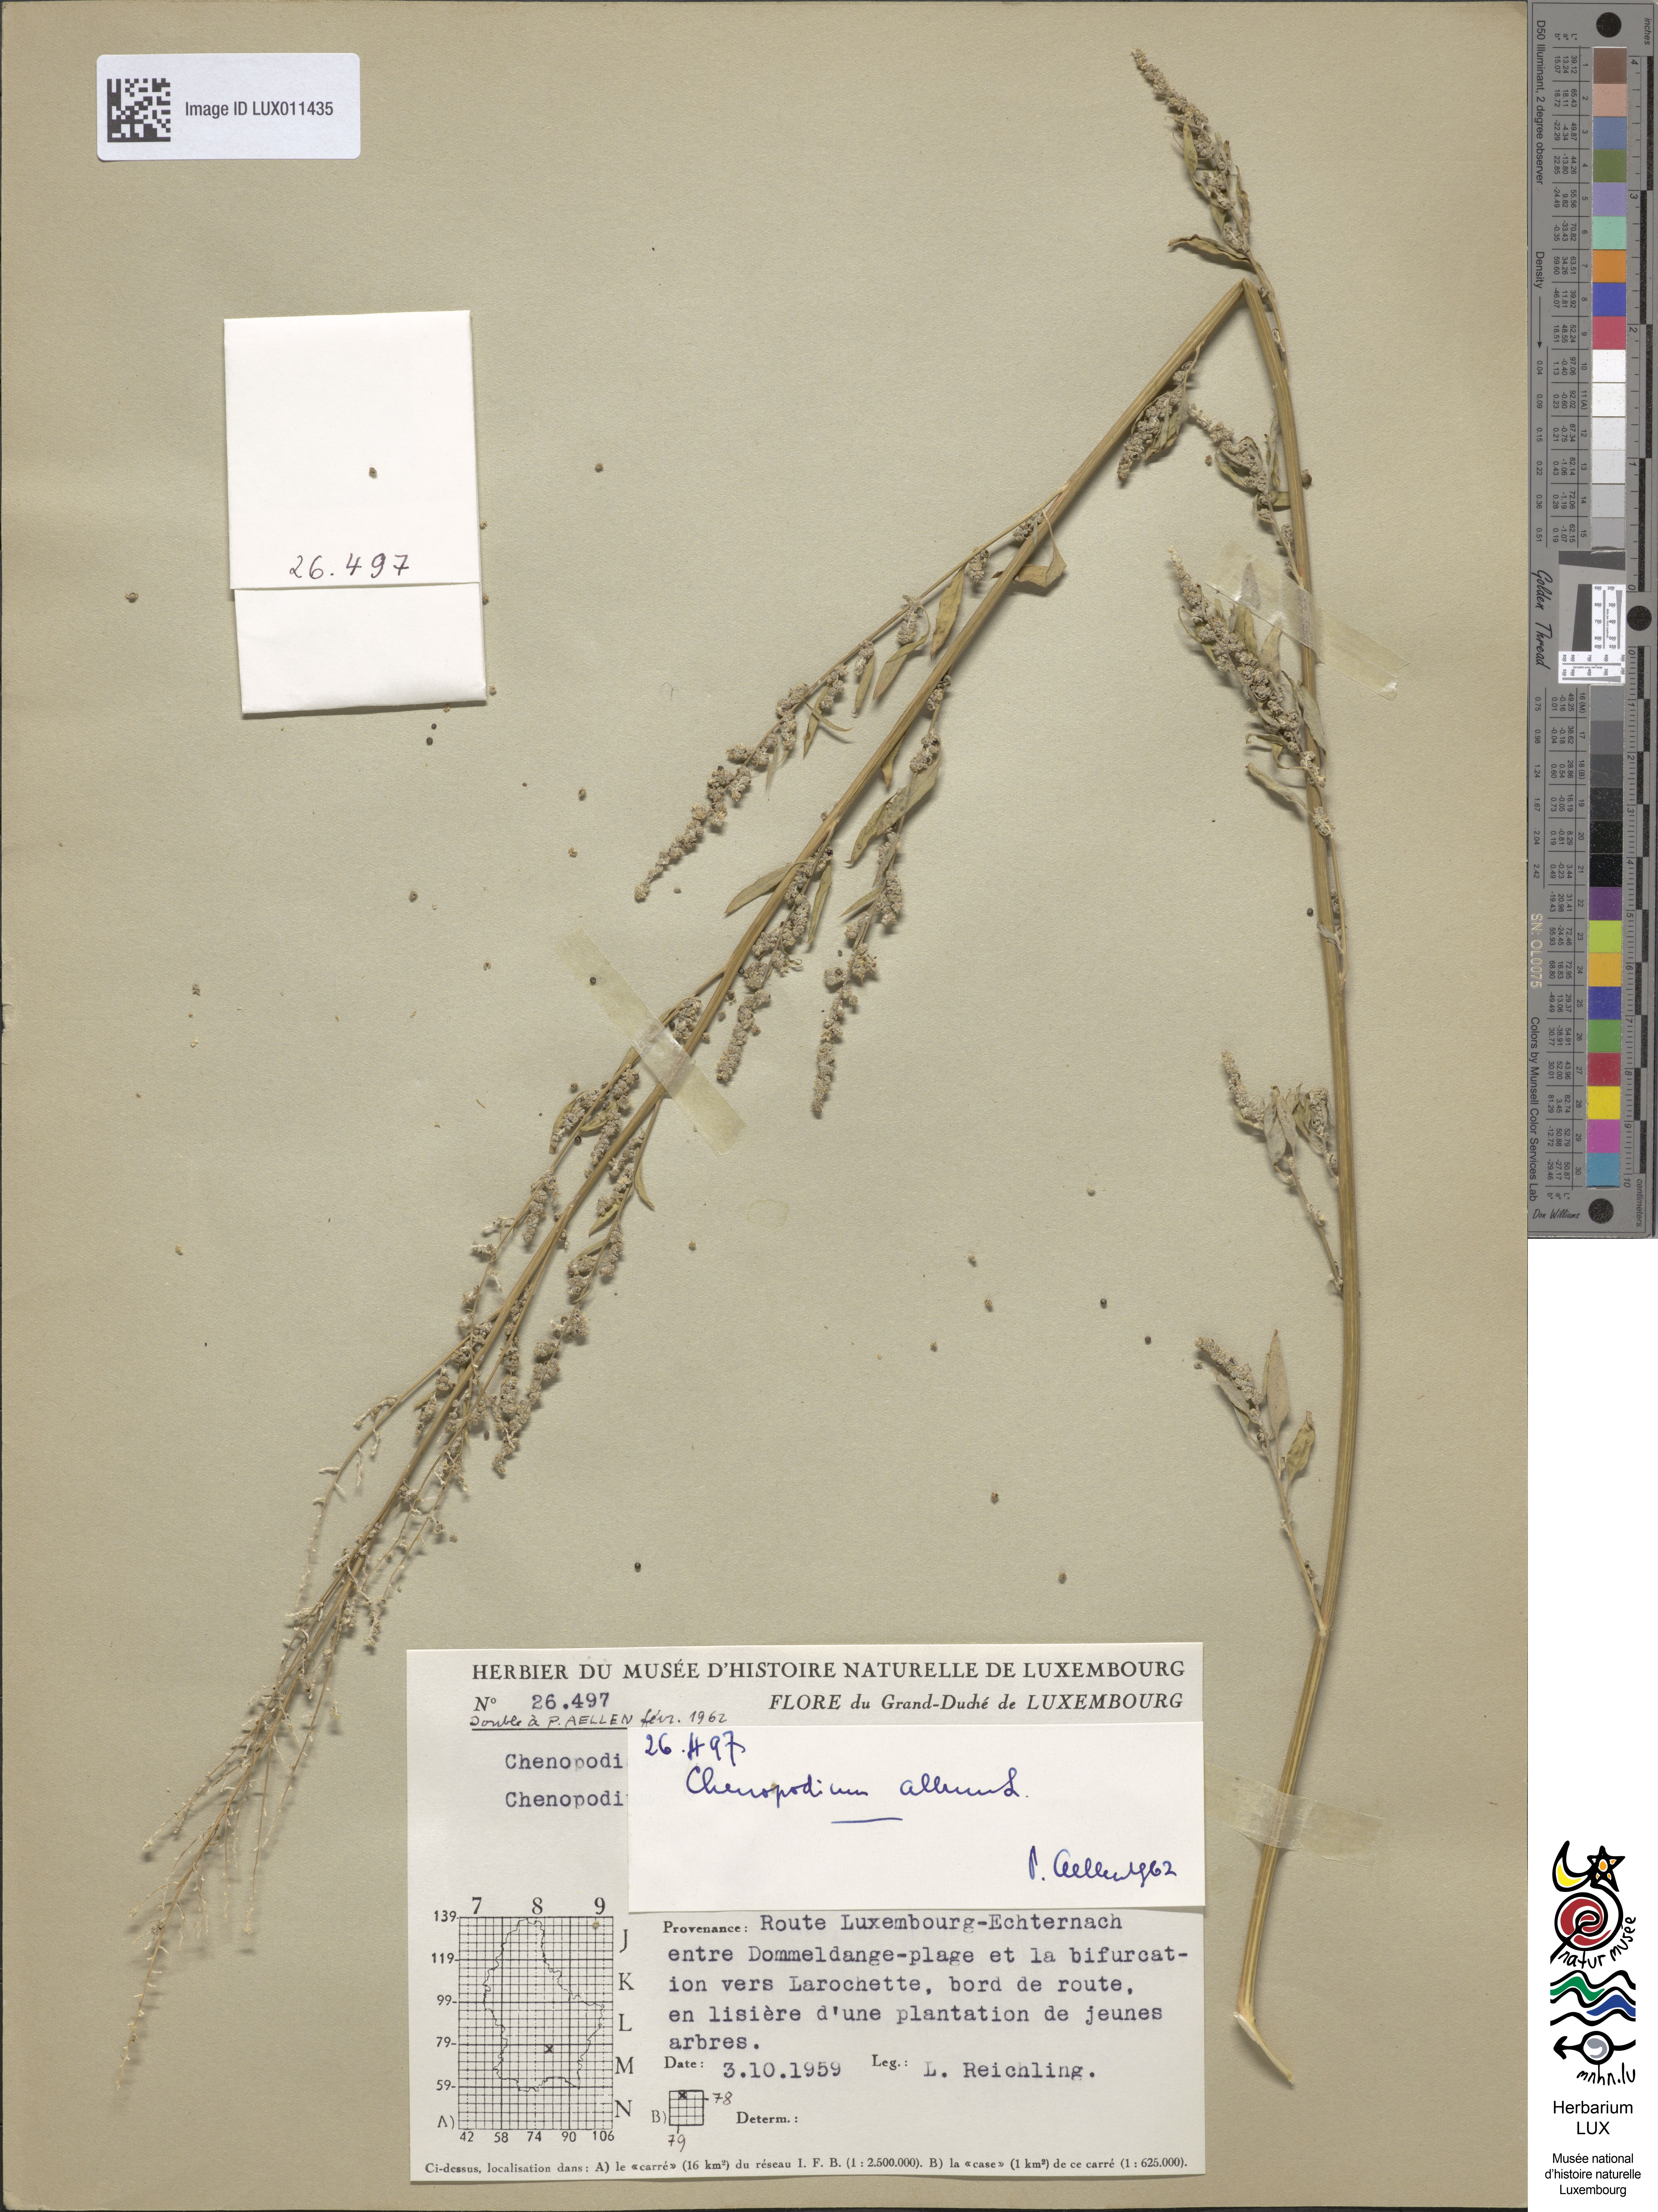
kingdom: Plantae
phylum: Tracheophyta
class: Magnoliopsida
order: Caryophyllales
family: Amaranthaceae
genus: Chenopodium
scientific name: Chenopodium album
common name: Fat-hen
